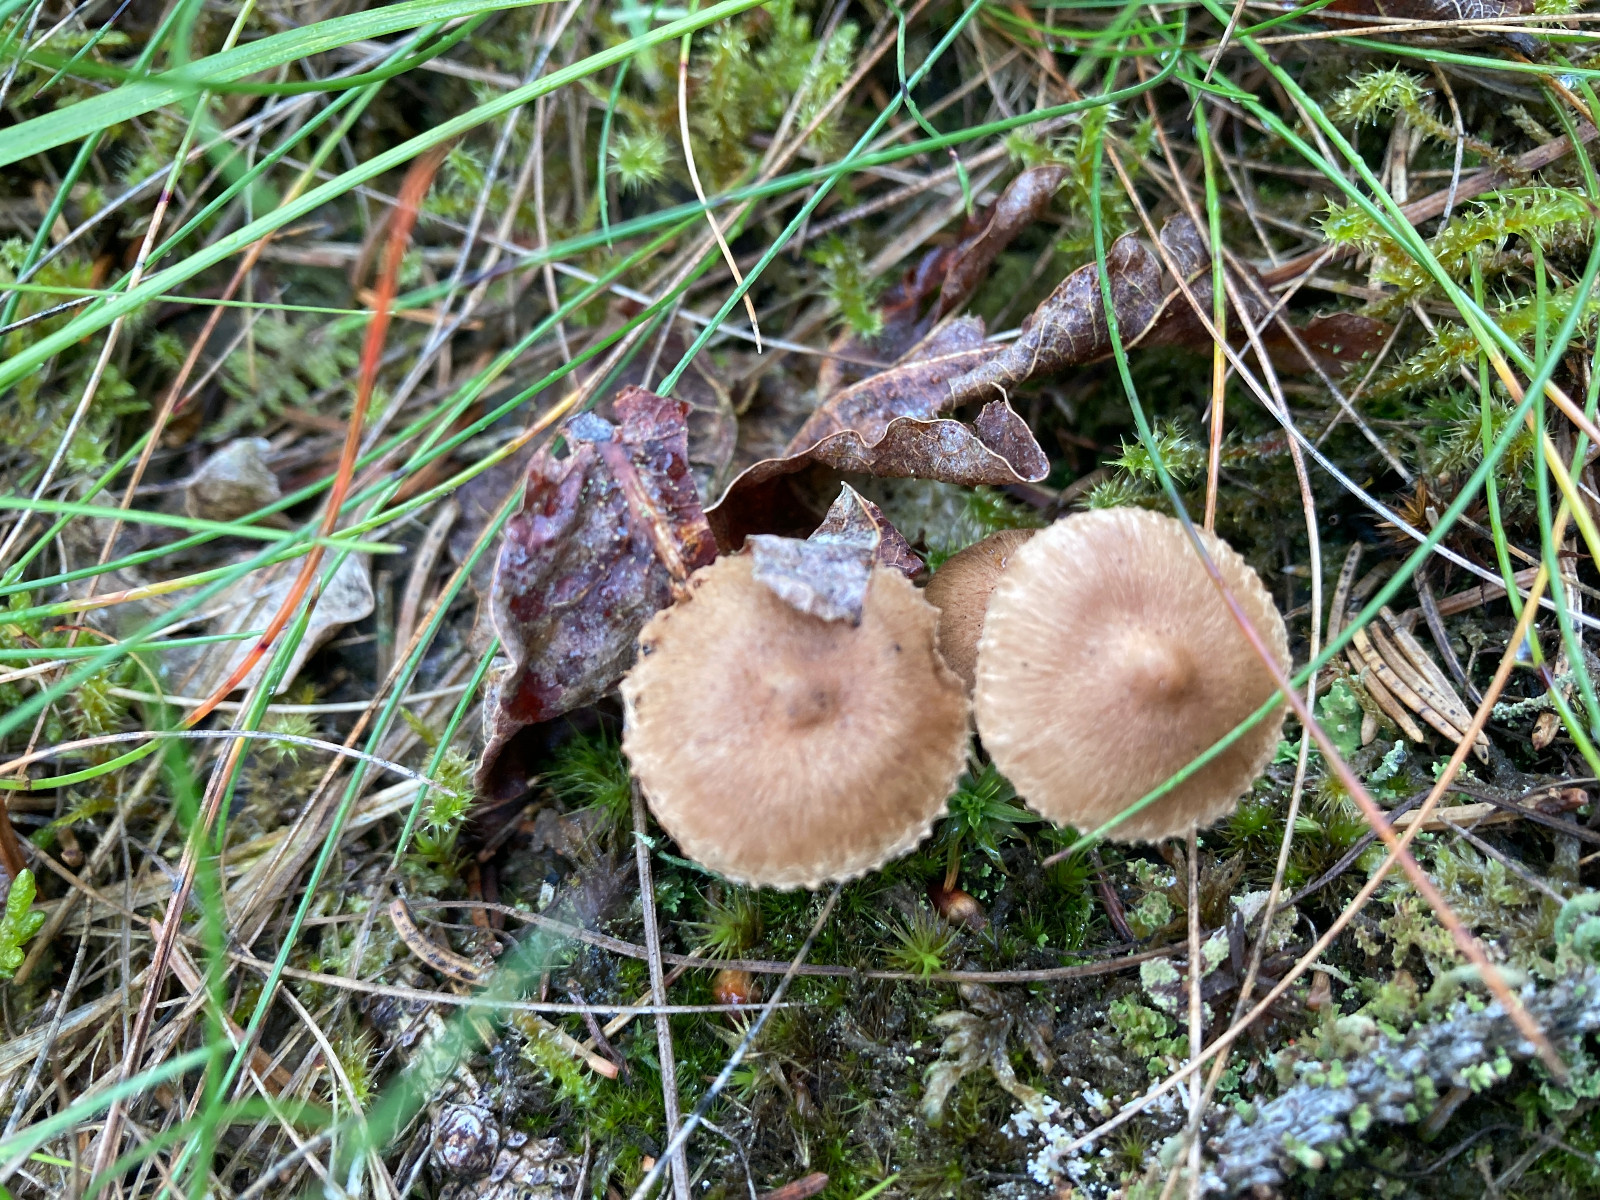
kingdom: Fungi
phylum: Basidiomycota
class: Agaricomycetes
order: Agaricales
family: Inocybaceae
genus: Inocybe
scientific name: Inocybe
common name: trævlhat
